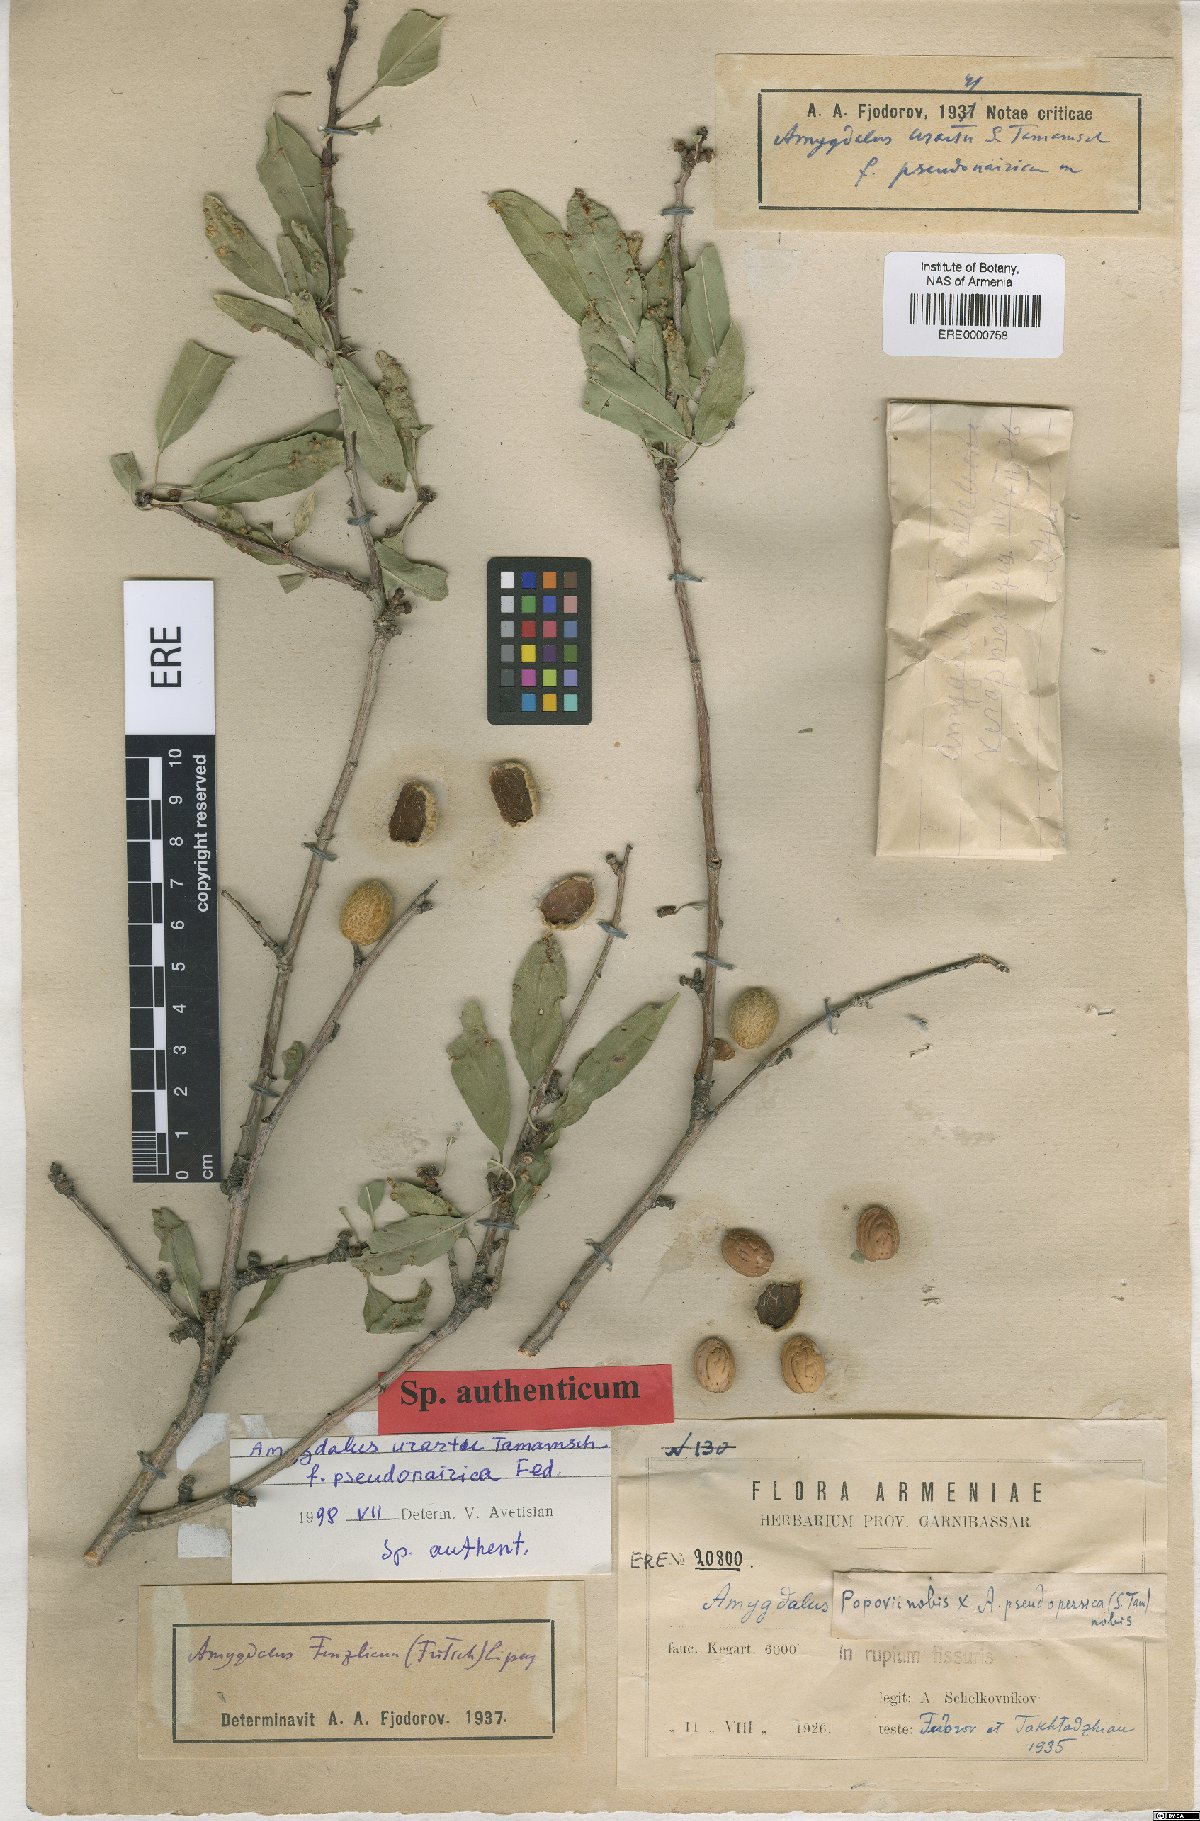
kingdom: Plantae
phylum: Tracheophyta
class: Magnoliopsida
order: Rosales
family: Rosaceae
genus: Prunus
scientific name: Prunus urartu
